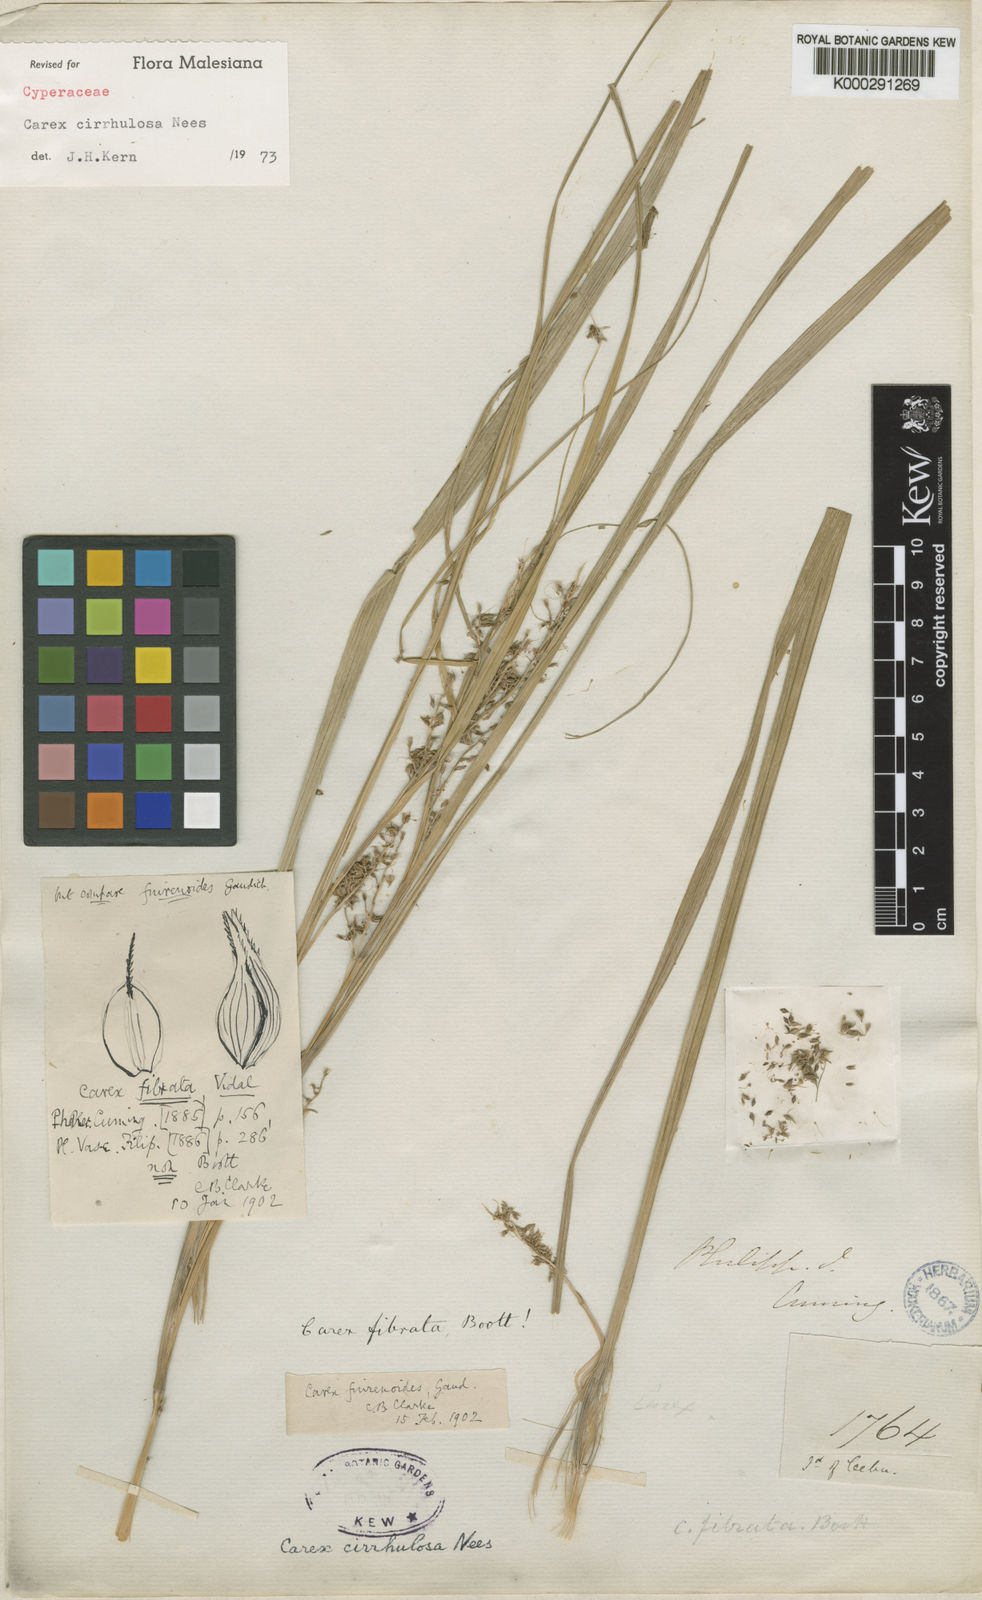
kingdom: Plantae
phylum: Tracheophyta
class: Liliopsida
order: Poales
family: Cyperaceae
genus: Carex
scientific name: Carex cirrhulosa
